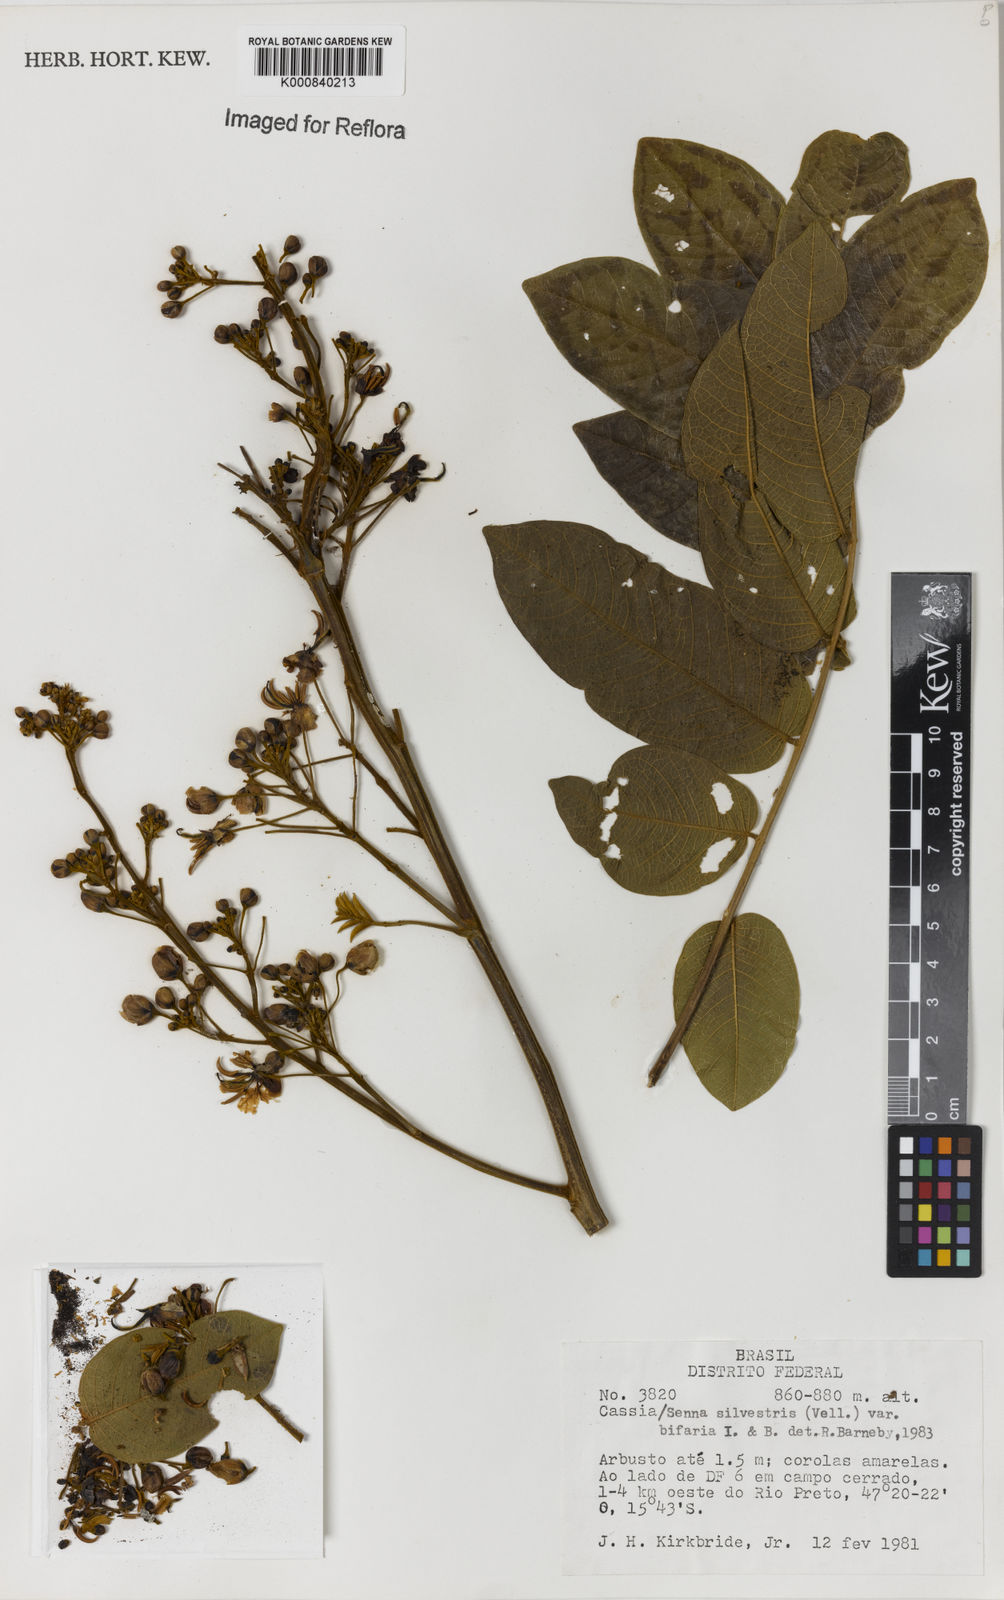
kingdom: Plantae
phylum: Tracheophyta
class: Magnoliopsida
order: Fabales
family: Fabaceae
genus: Senna
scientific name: Senna silvestris
